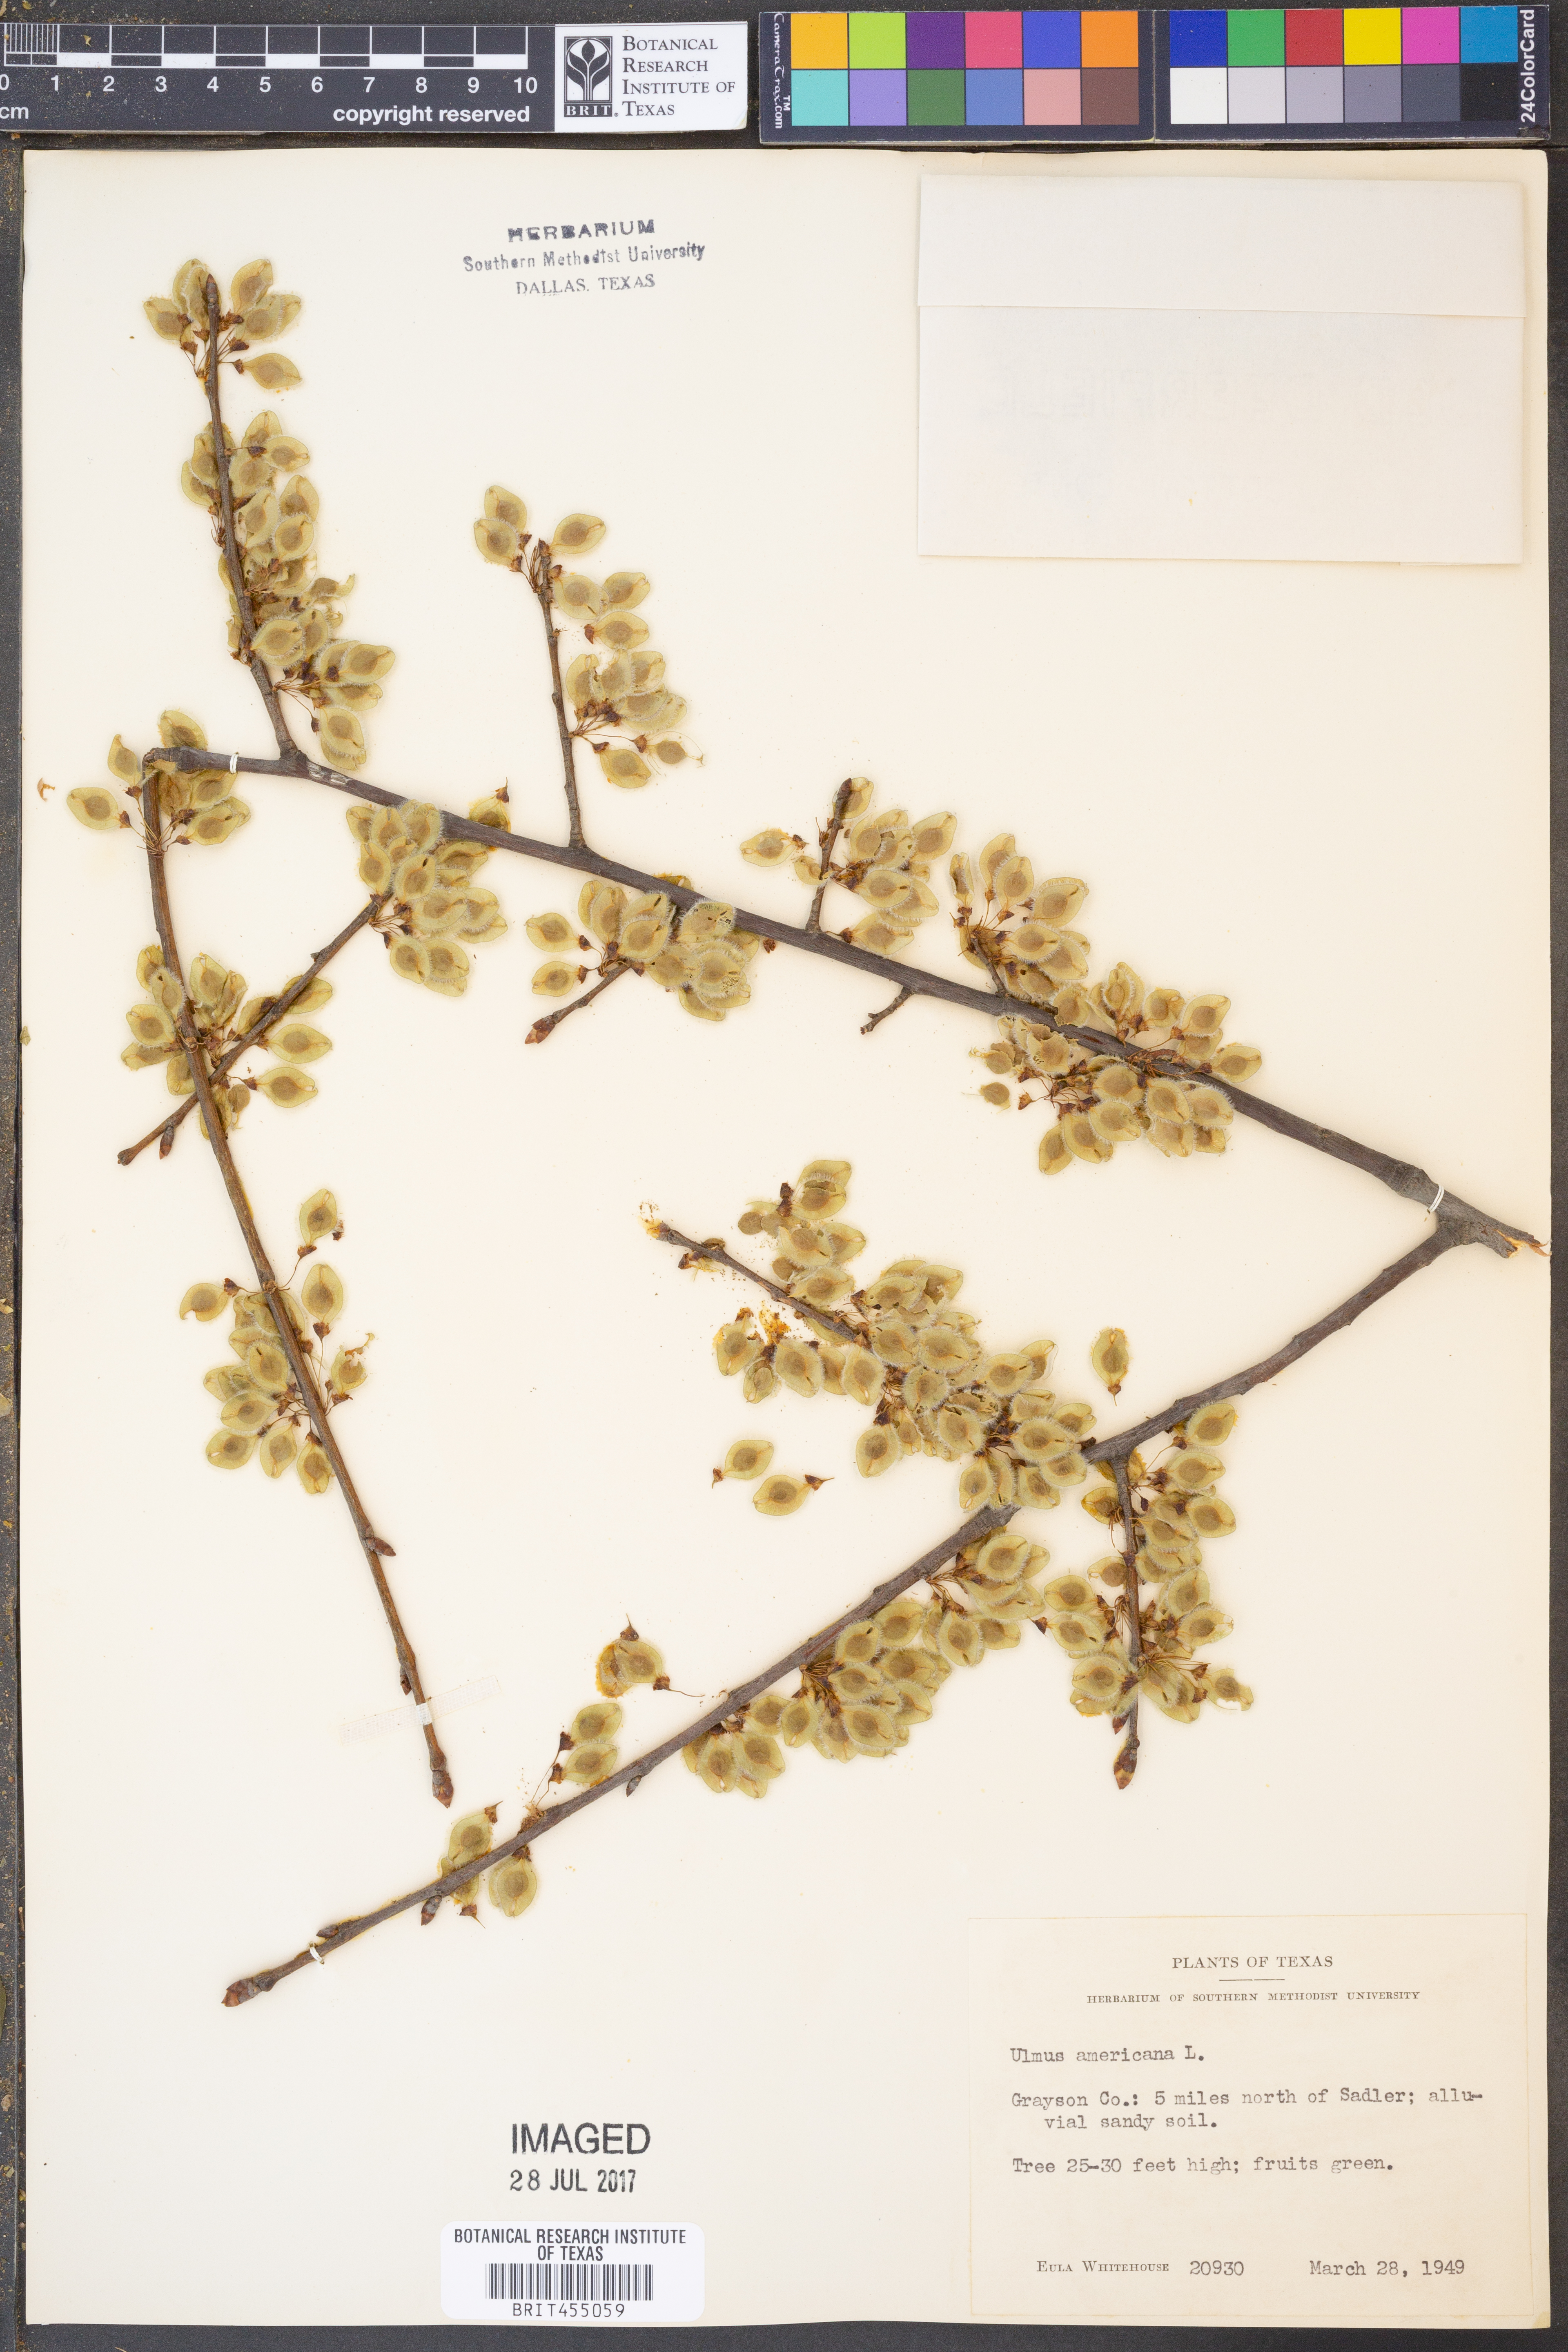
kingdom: Plantae
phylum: Tracheophyta
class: Magnoliopsida
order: Rosales
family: Ulmaceae
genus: Ulmus
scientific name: Ulmus americana
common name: American elm
